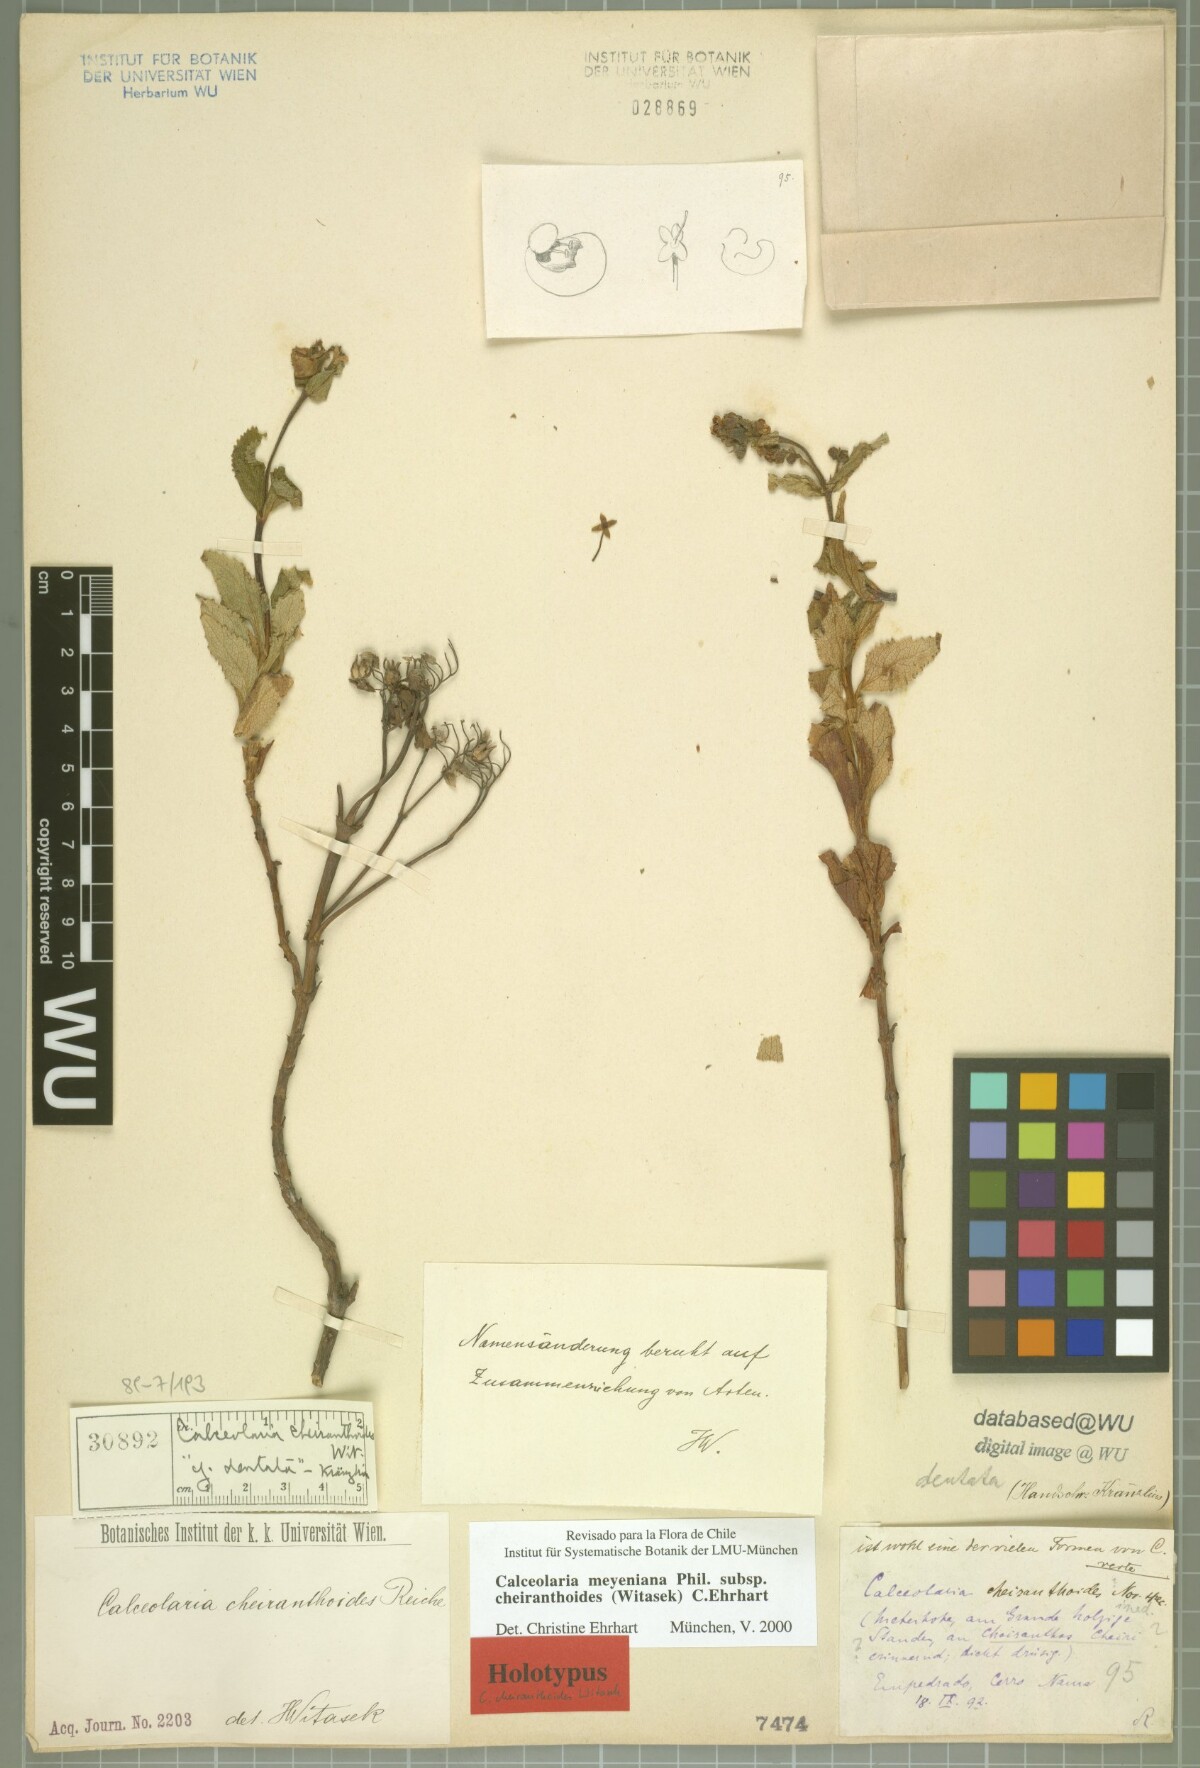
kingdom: Plantae
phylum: Tracheophyta
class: Magnoliopsida
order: Lamiales
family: Calceolariaceae
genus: Calceolaria
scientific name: Calceolaria meyeniana
